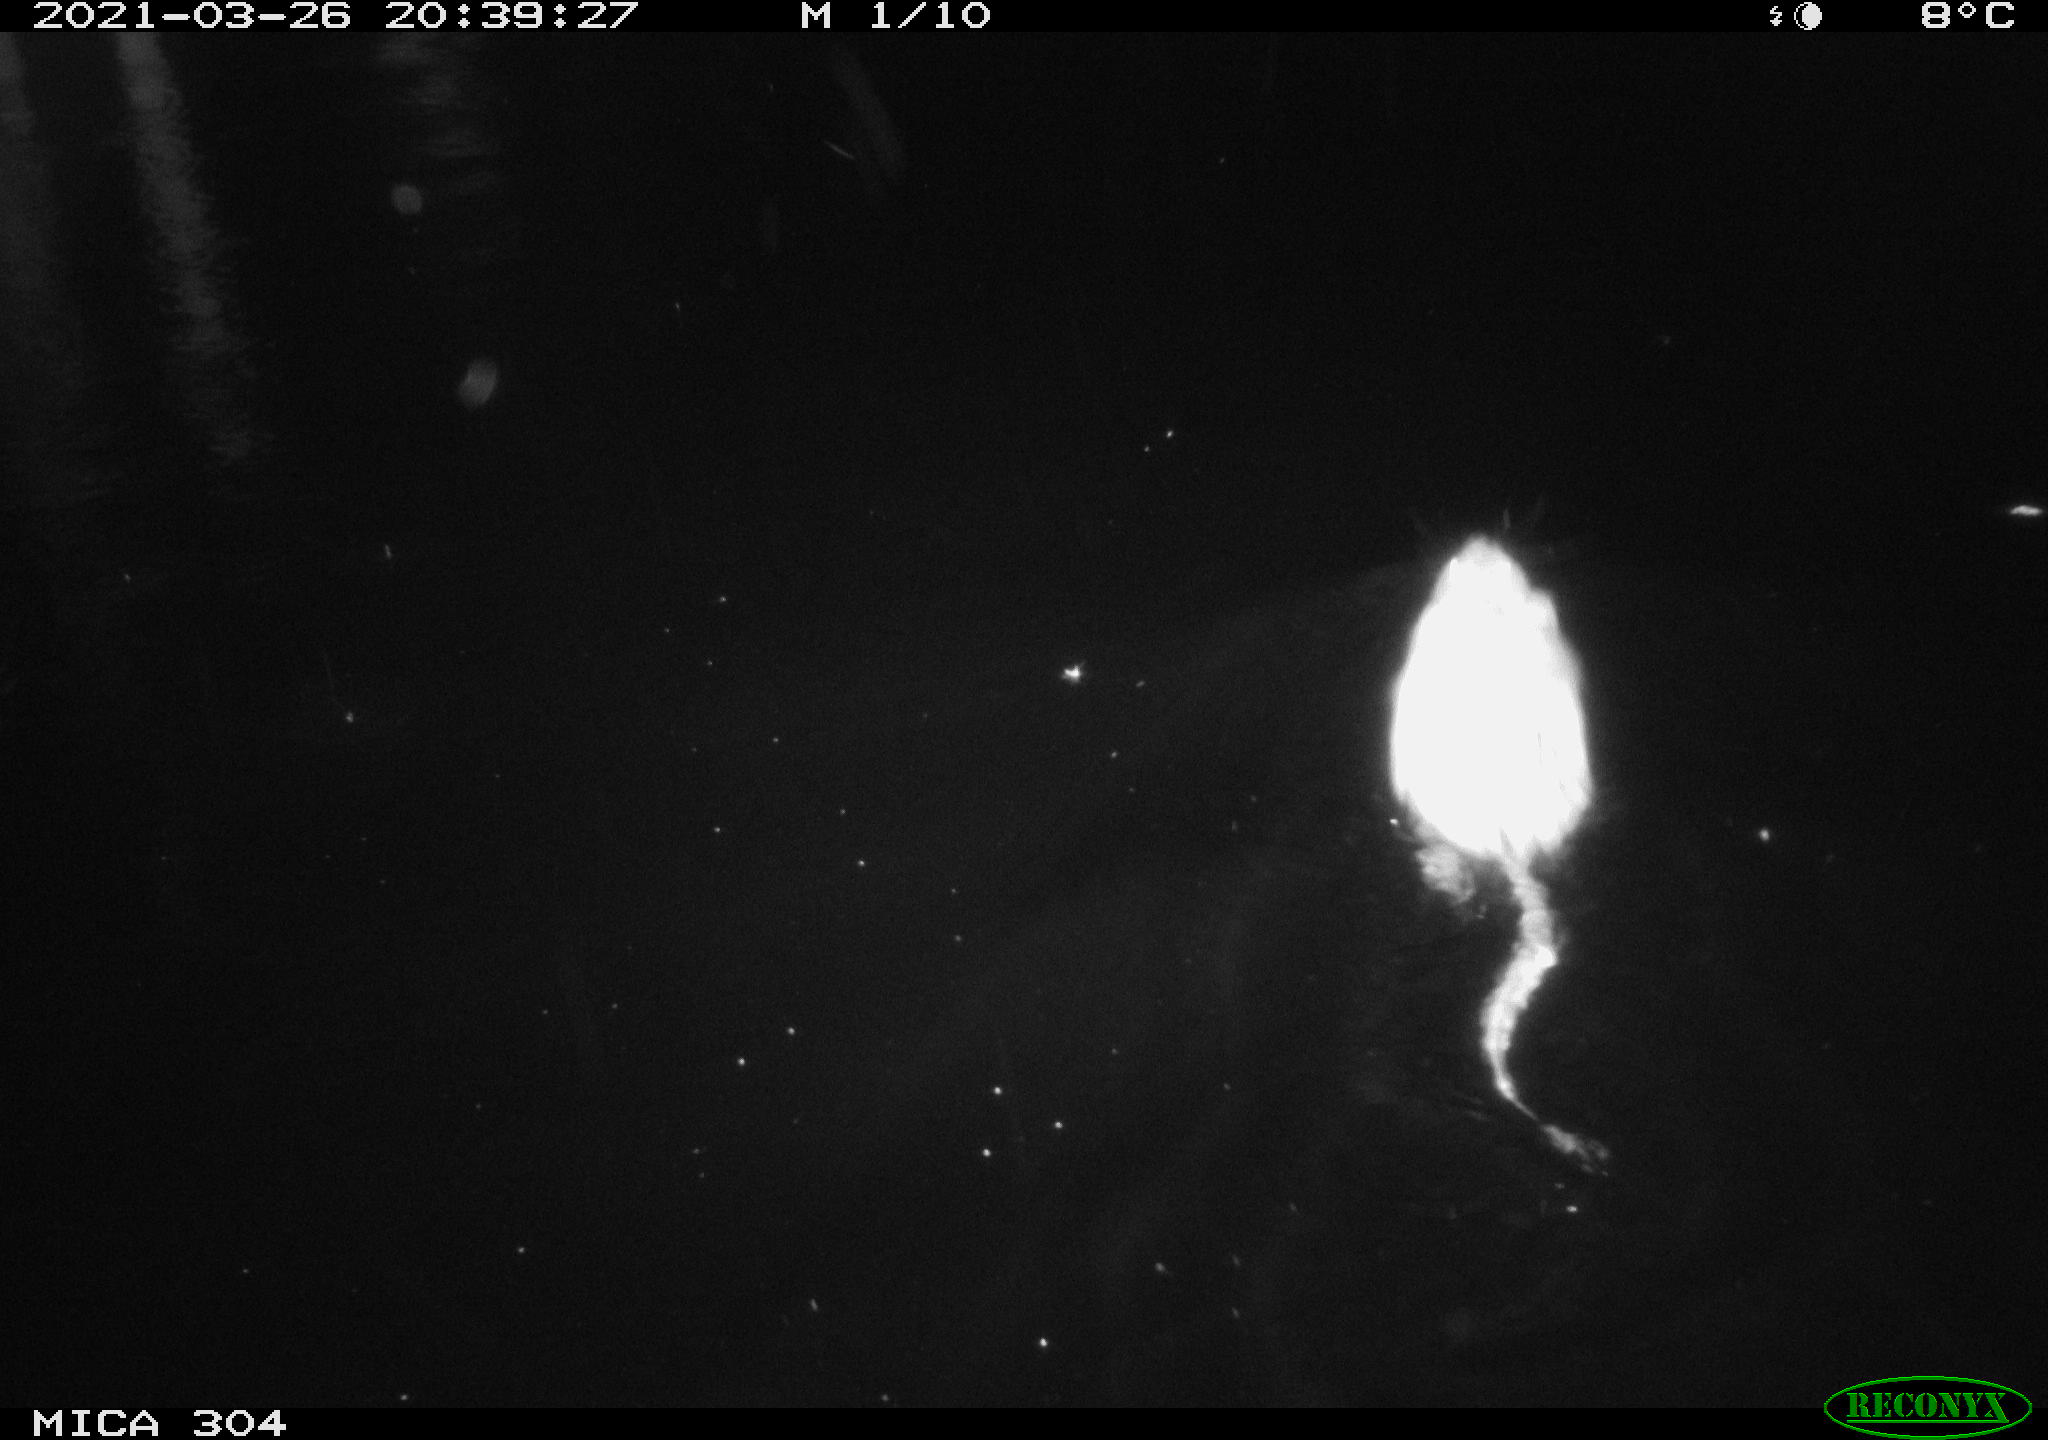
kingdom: Animalia
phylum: Chordata
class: Mammalia
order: Rodentia
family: Cricetidae
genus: Ondatra
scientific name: Ondatra zibethicus
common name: Muskrat
